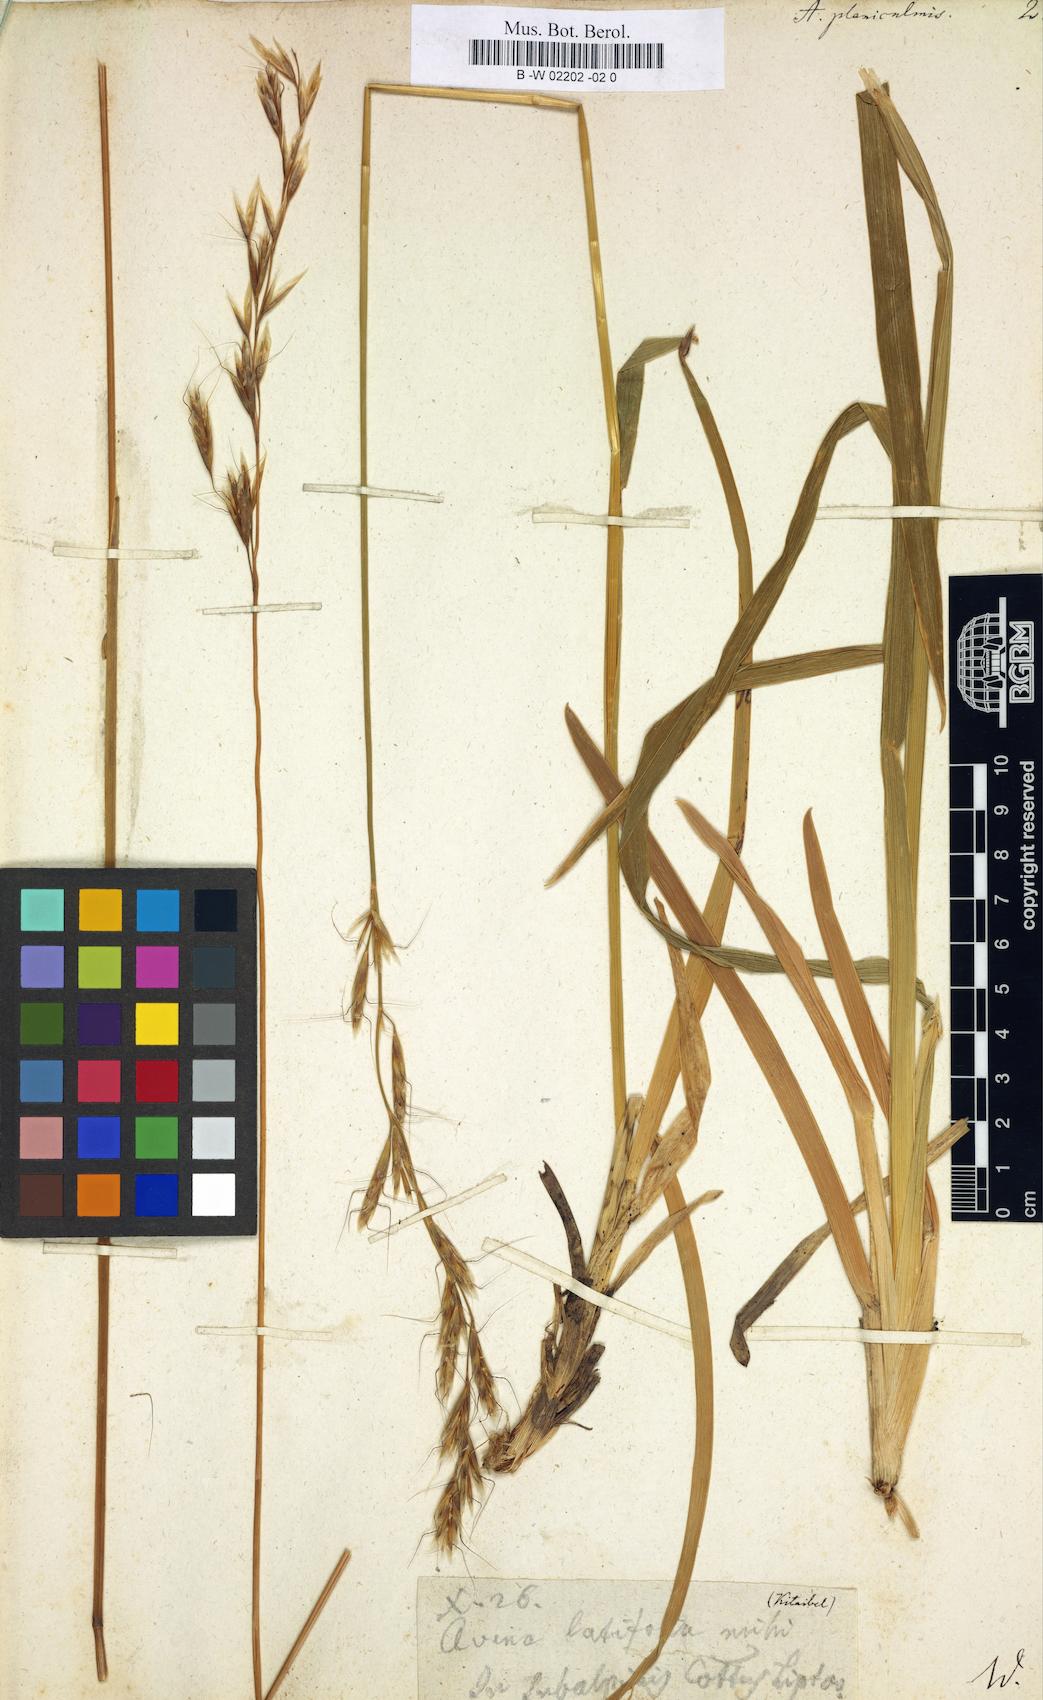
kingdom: Plantae
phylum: Tracheophyta
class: Liliopsida
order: Poales
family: Poaceae
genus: Helictochloa
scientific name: Helictochloa
